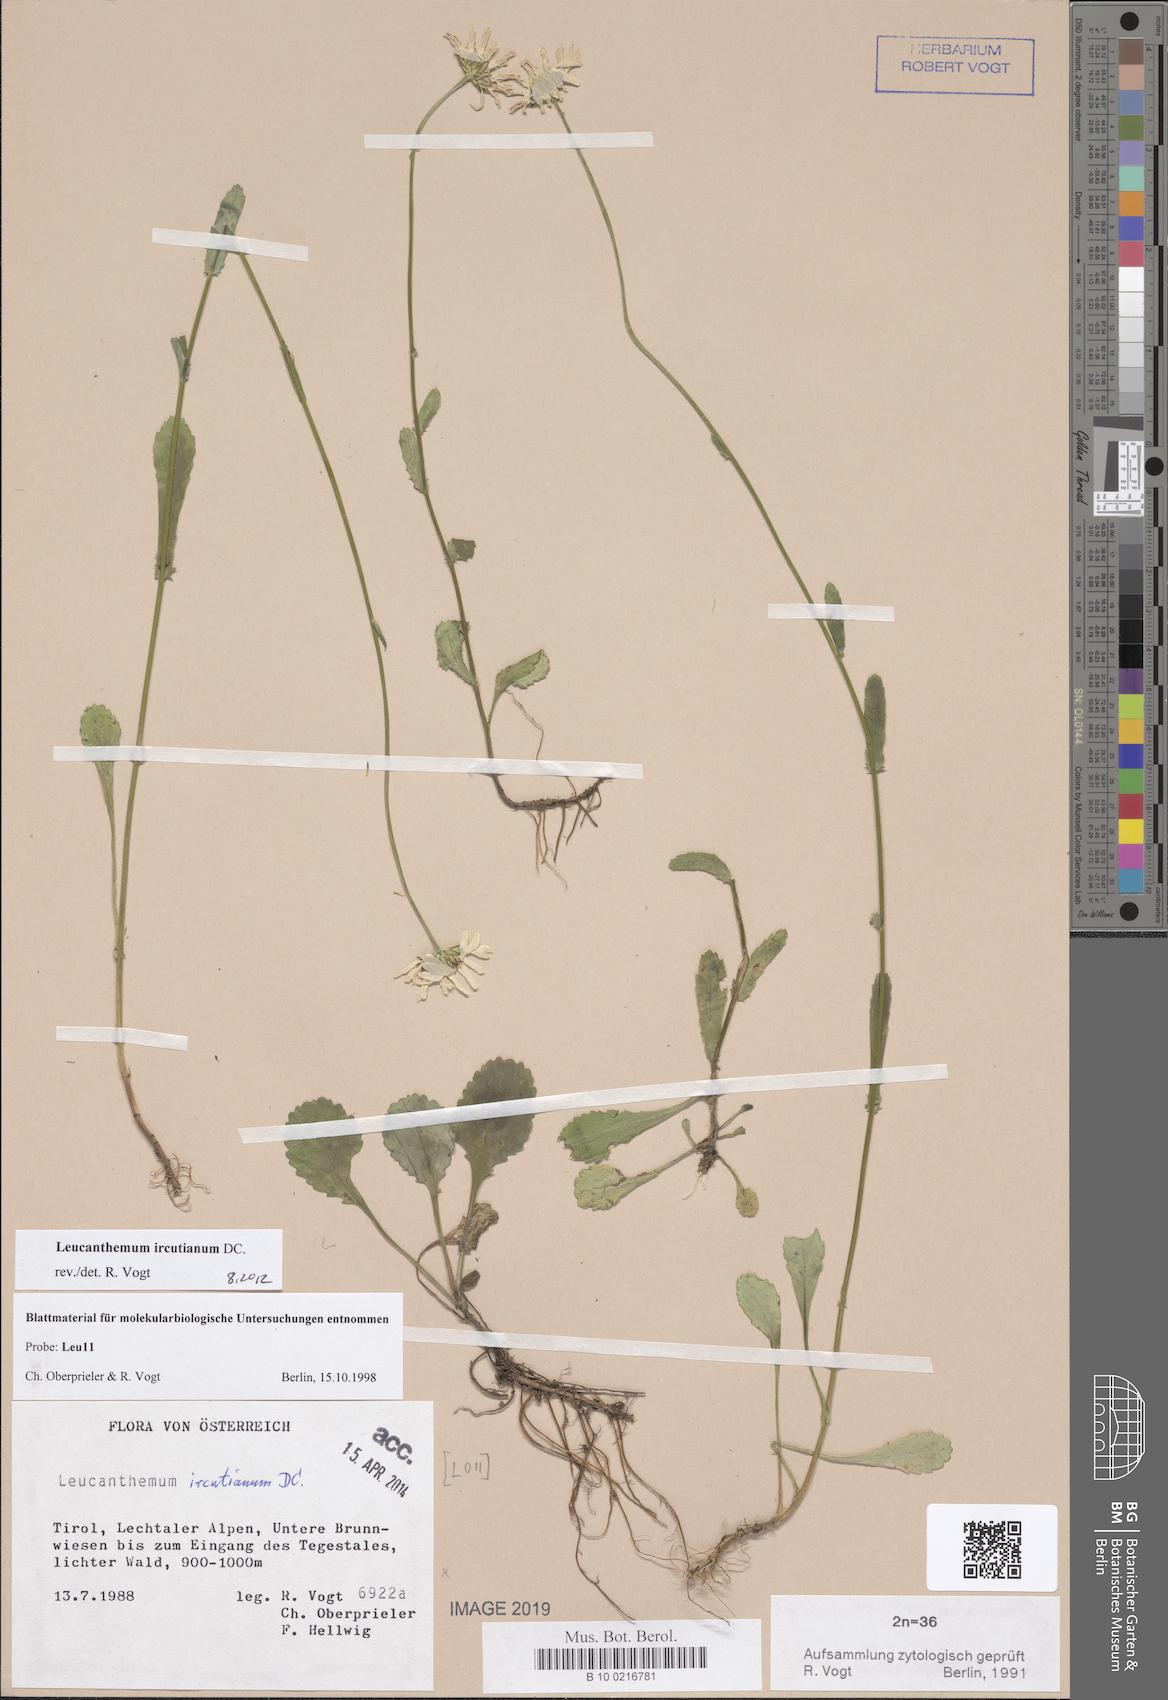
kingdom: Plantae
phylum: Tracheophyta
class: Magnoliopsida
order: Asterales
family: Asteraceae
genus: Leucanthemum
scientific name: Leucanthemum ircutianum
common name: Daisy
